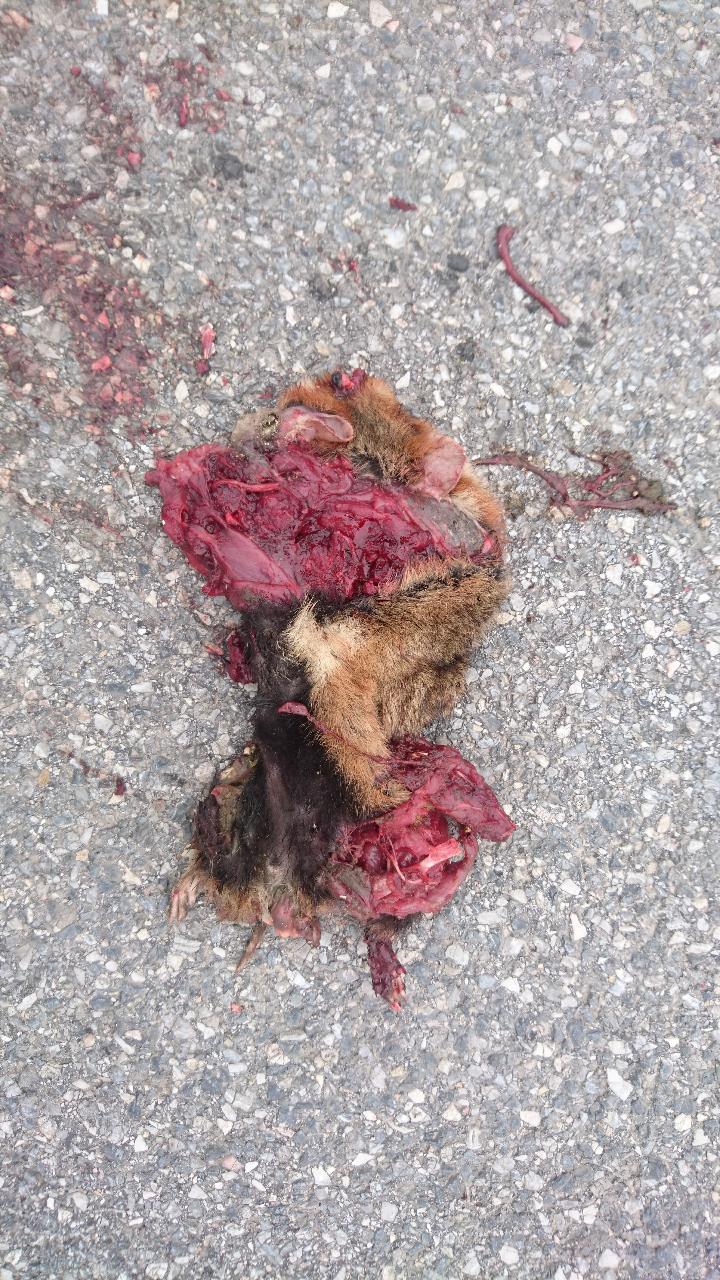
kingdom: Animalia
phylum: Chordata
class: Mammalia
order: Rodentia
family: Cricetidae
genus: Cricetus
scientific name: Cricetus cricetus
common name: Common hamster
